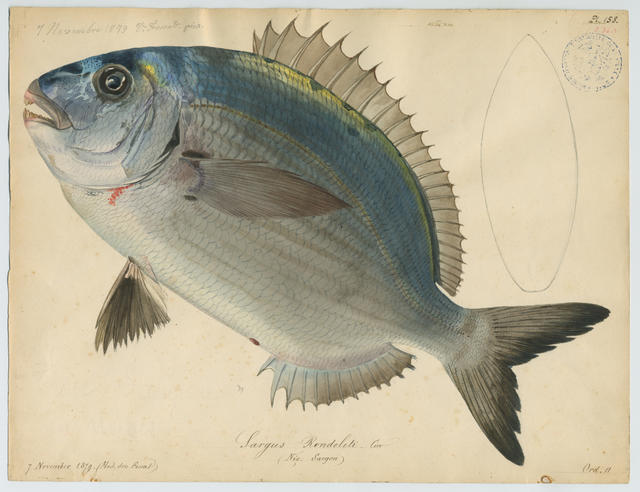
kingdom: Animalia
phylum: Chordata
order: Perciformes
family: Sparidae
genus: Diplodus
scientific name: Diplodus
